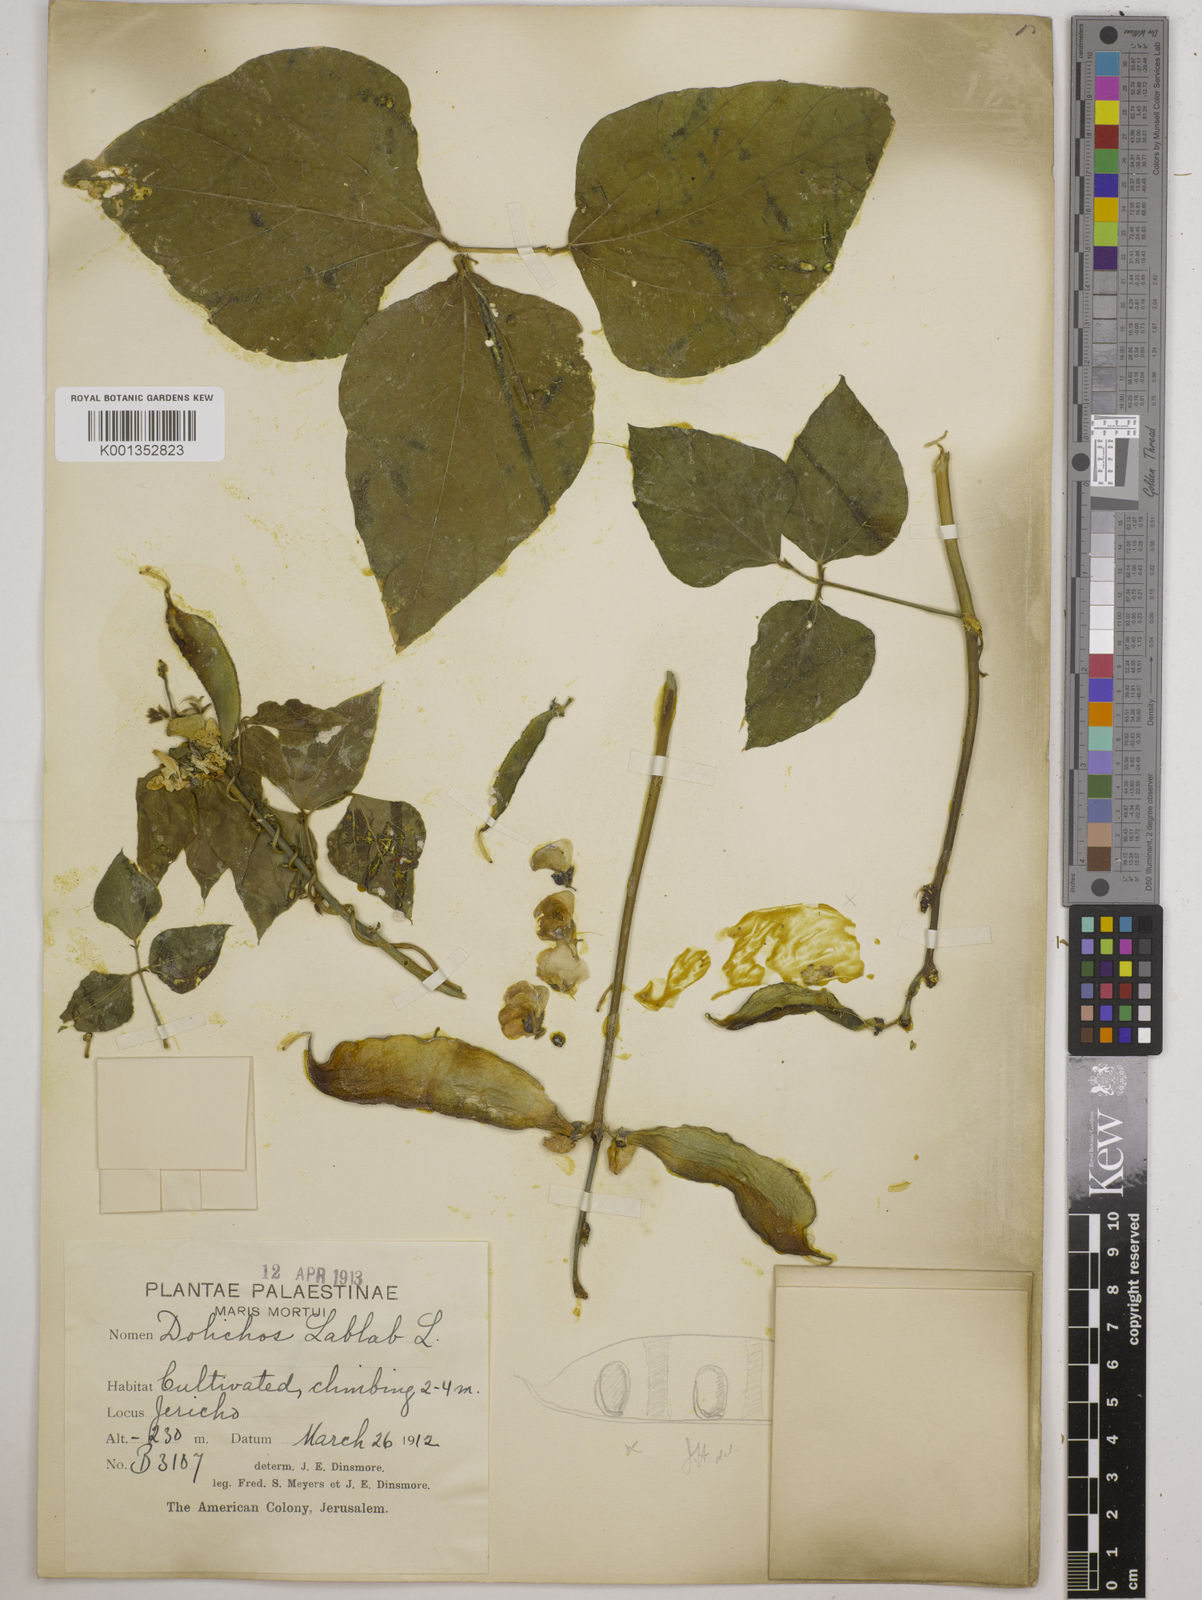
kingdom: Plantae
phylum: Tracheophyta
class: Magnoliopsida
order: Fabales
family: Fabaceae
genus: Lablab
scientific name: Lablab purpureus
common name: Lablab-bean
